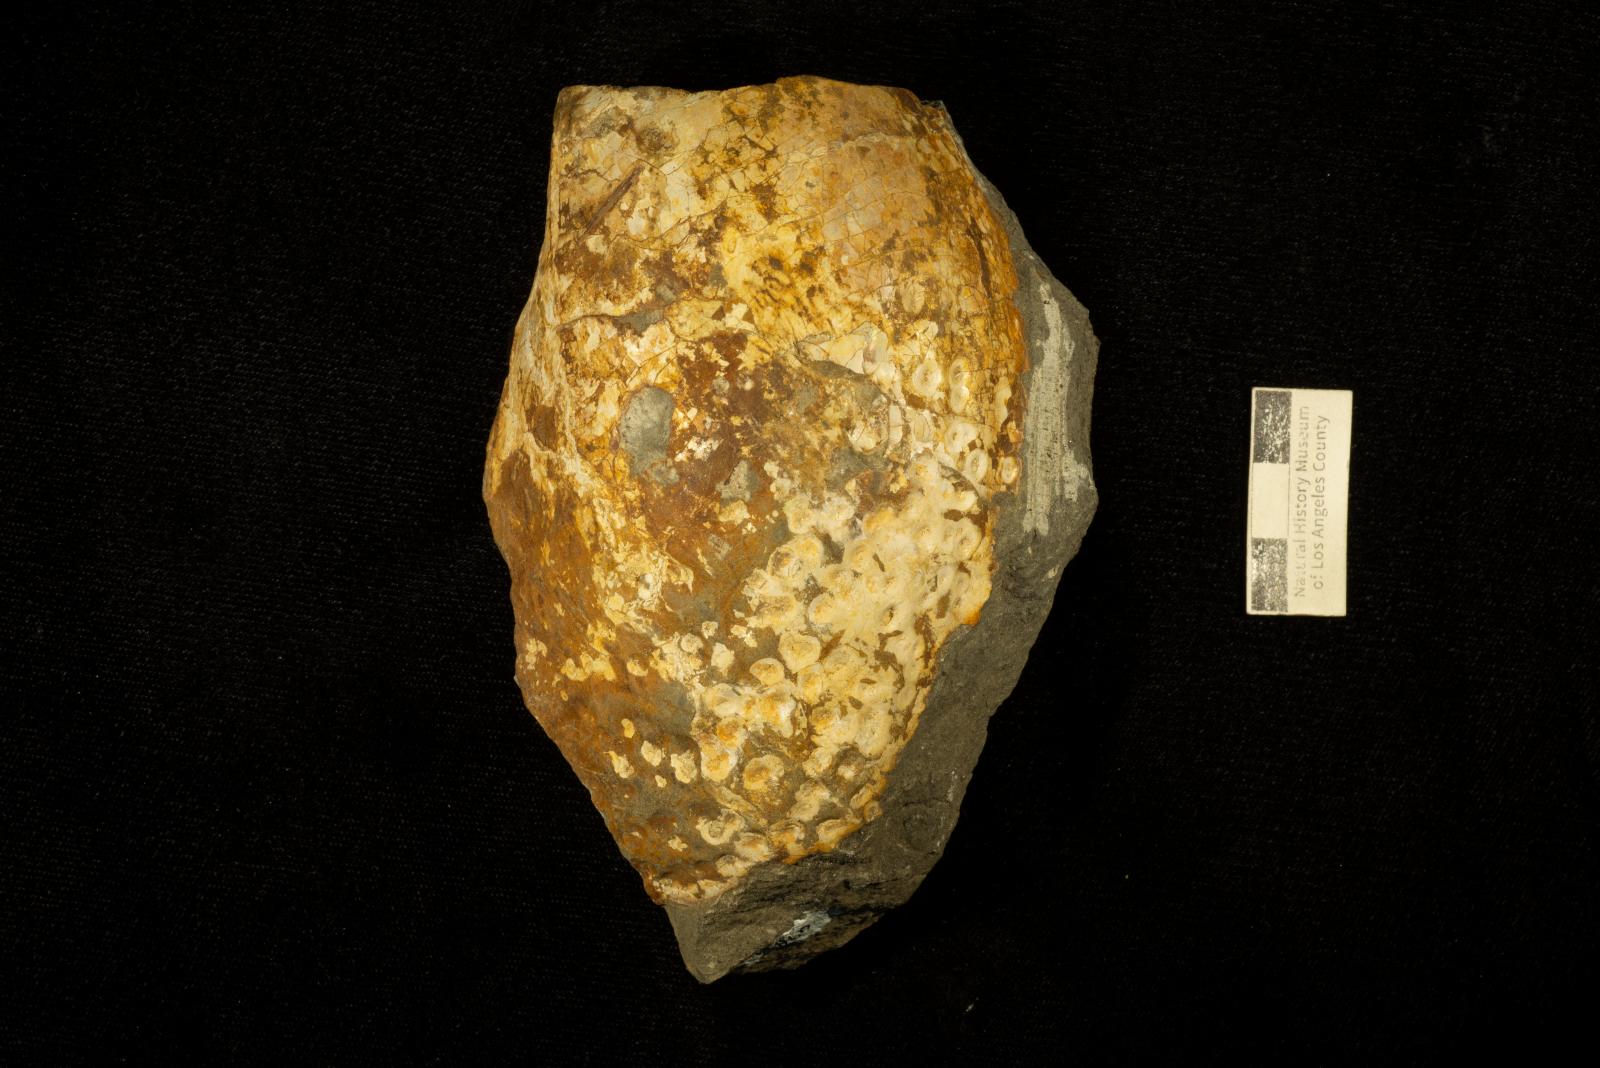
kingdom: Animalia
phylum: Mollusca
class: Bivalvia
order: Myalinida
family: Inoceramidae
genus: Inoceramus
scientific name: Inoceramus
